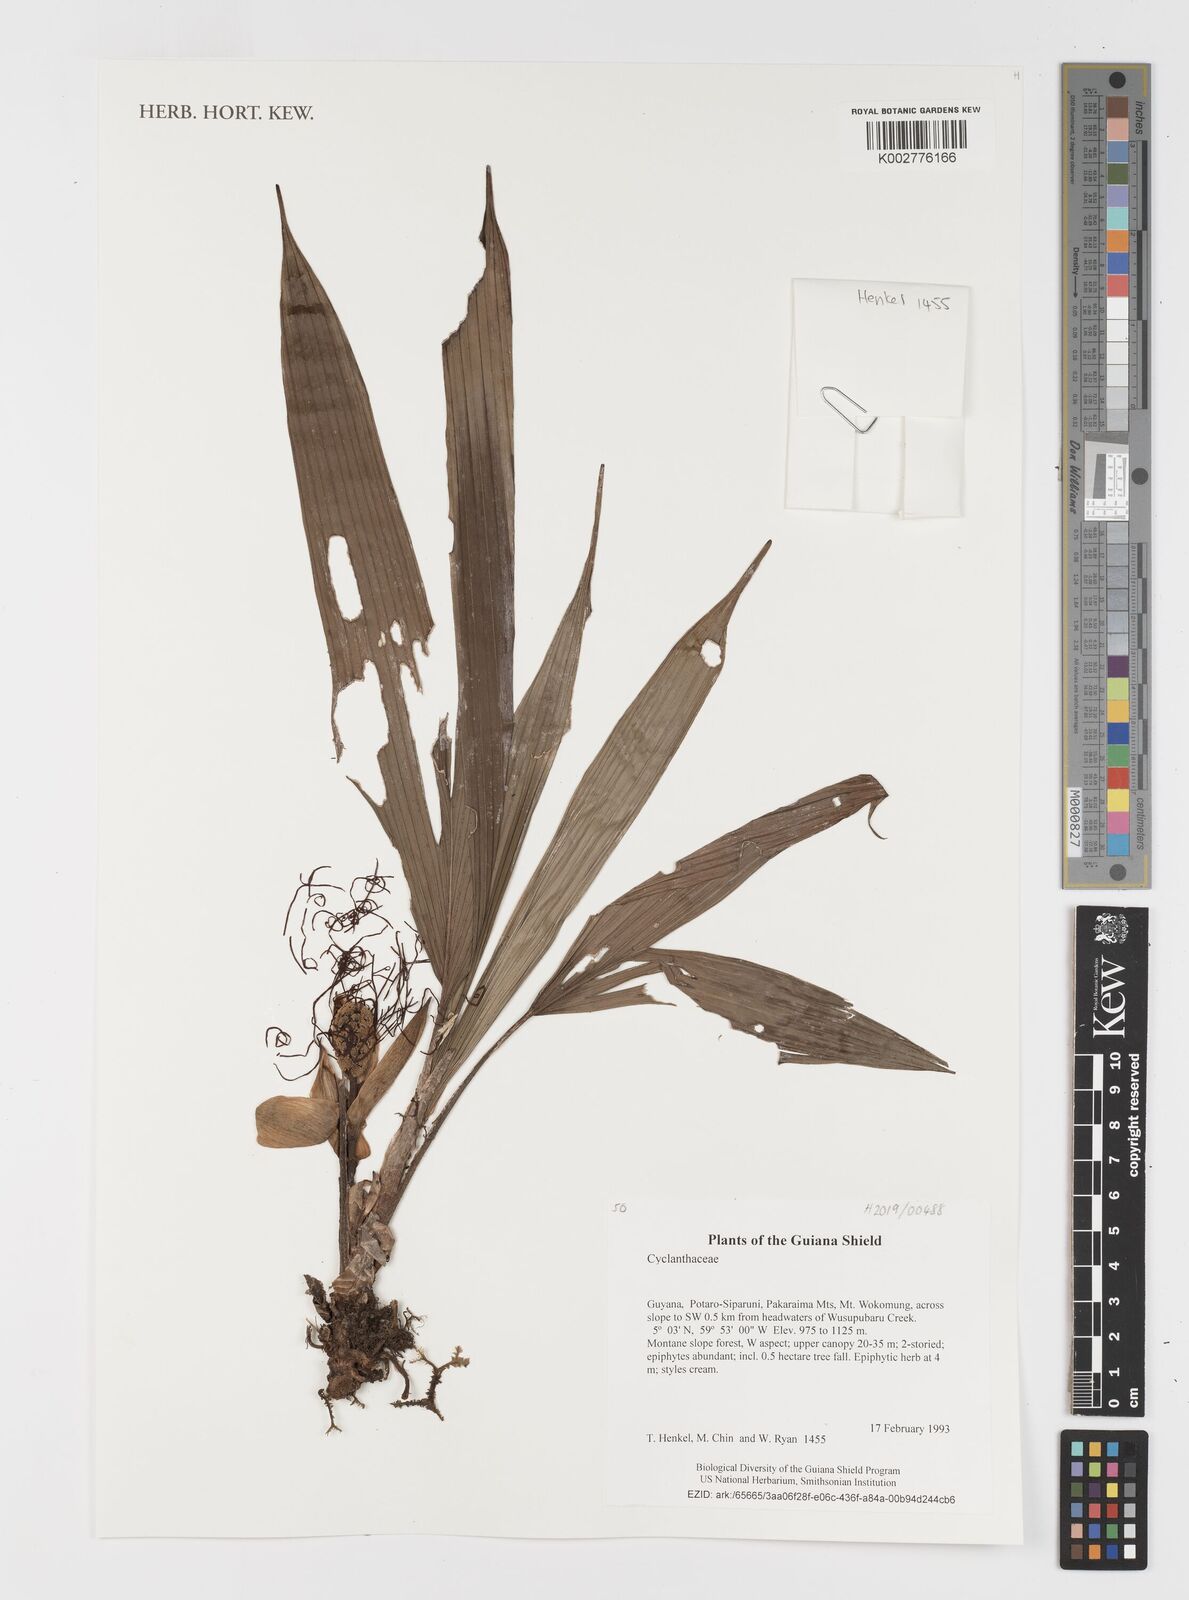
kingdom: Plantae
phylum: Tracheophyta
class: Liliopsida
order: Pandanales
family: Cyclanthaceae
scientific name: Cyclanthaceae
